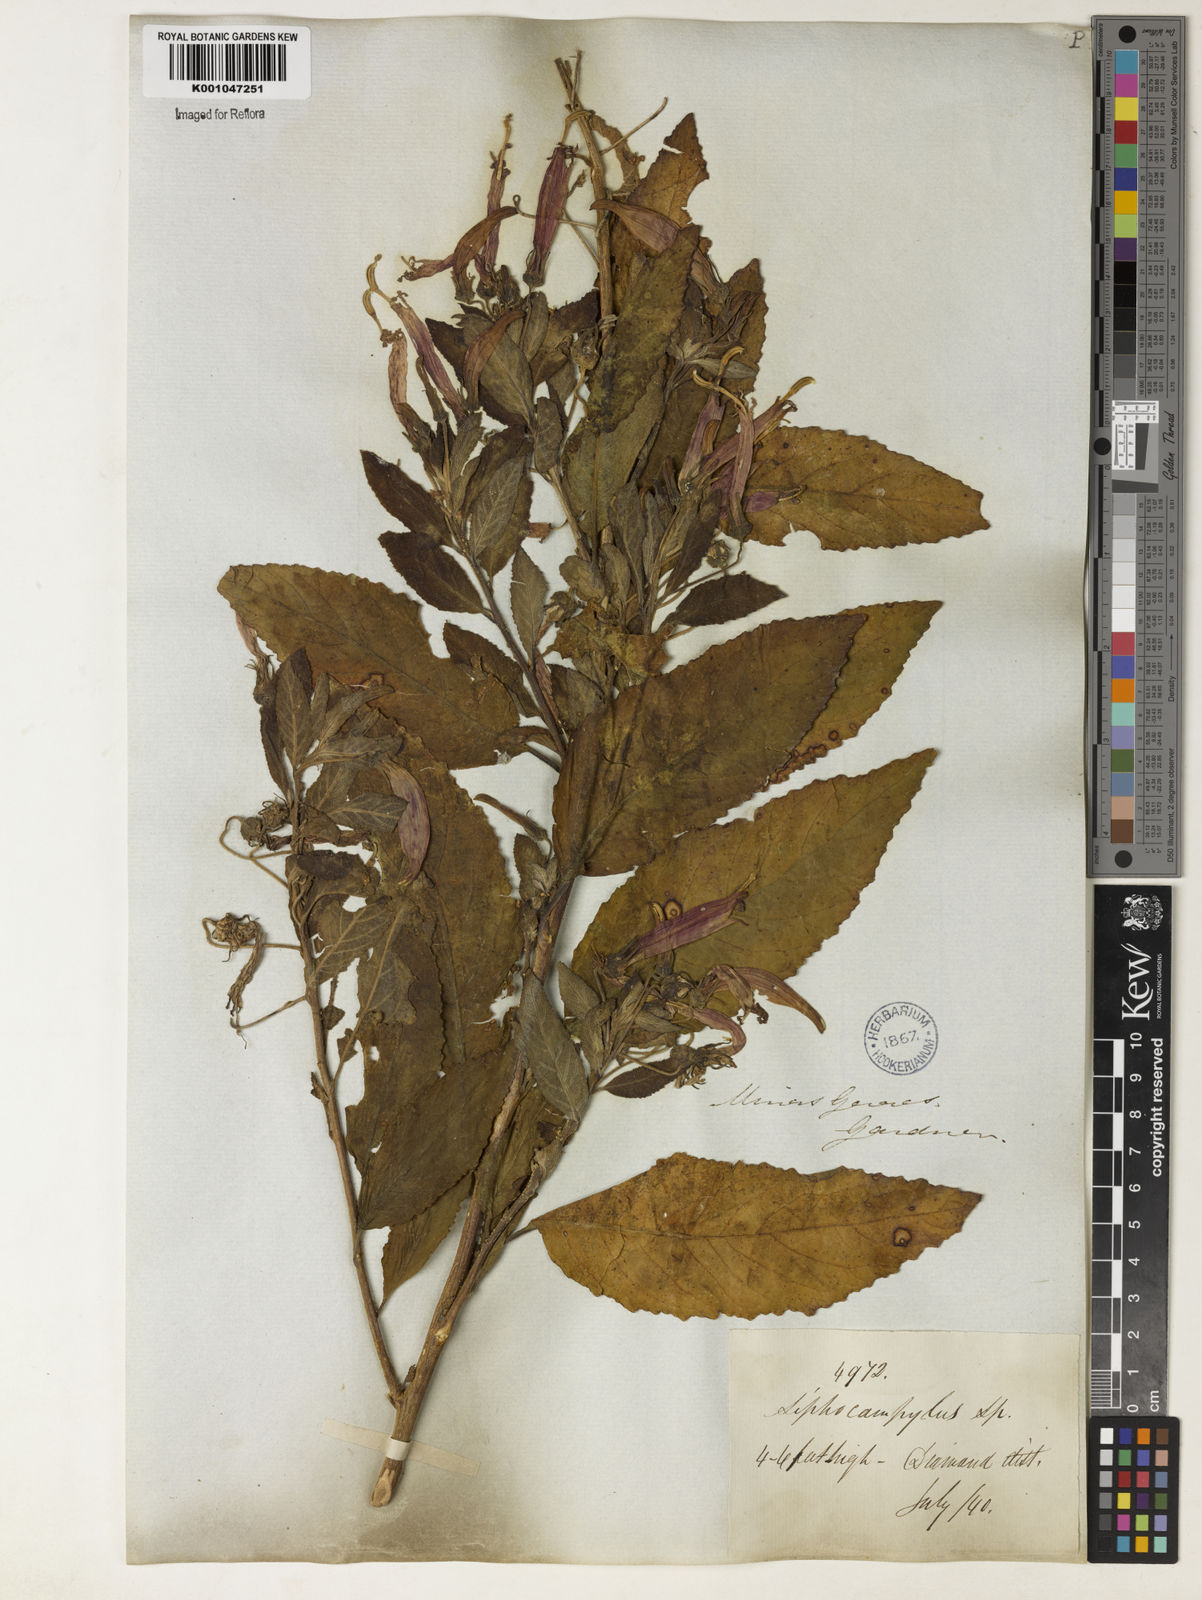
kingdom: Plantae
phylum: Tracheophyta
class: Magnoliopsida
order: Asterales
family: Campanulaceae
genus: Siphocampylus
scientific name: Siphocampylus macropodus
